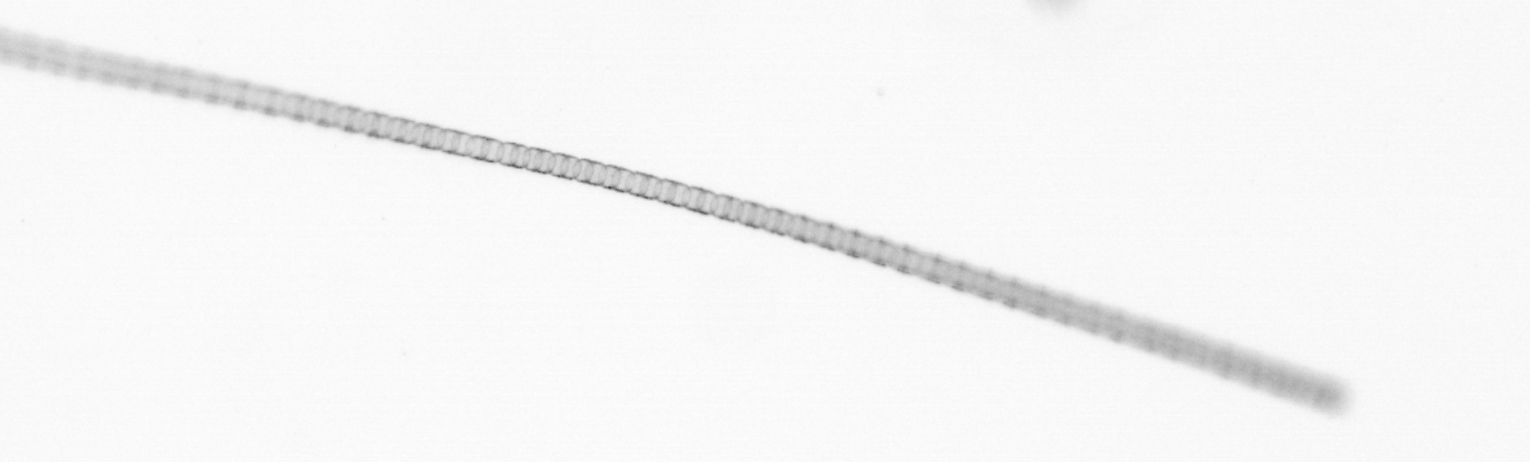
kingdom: Chromista
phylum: Ochrophyta
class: Bacillariophyceae
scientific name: Bacillariophyceae
